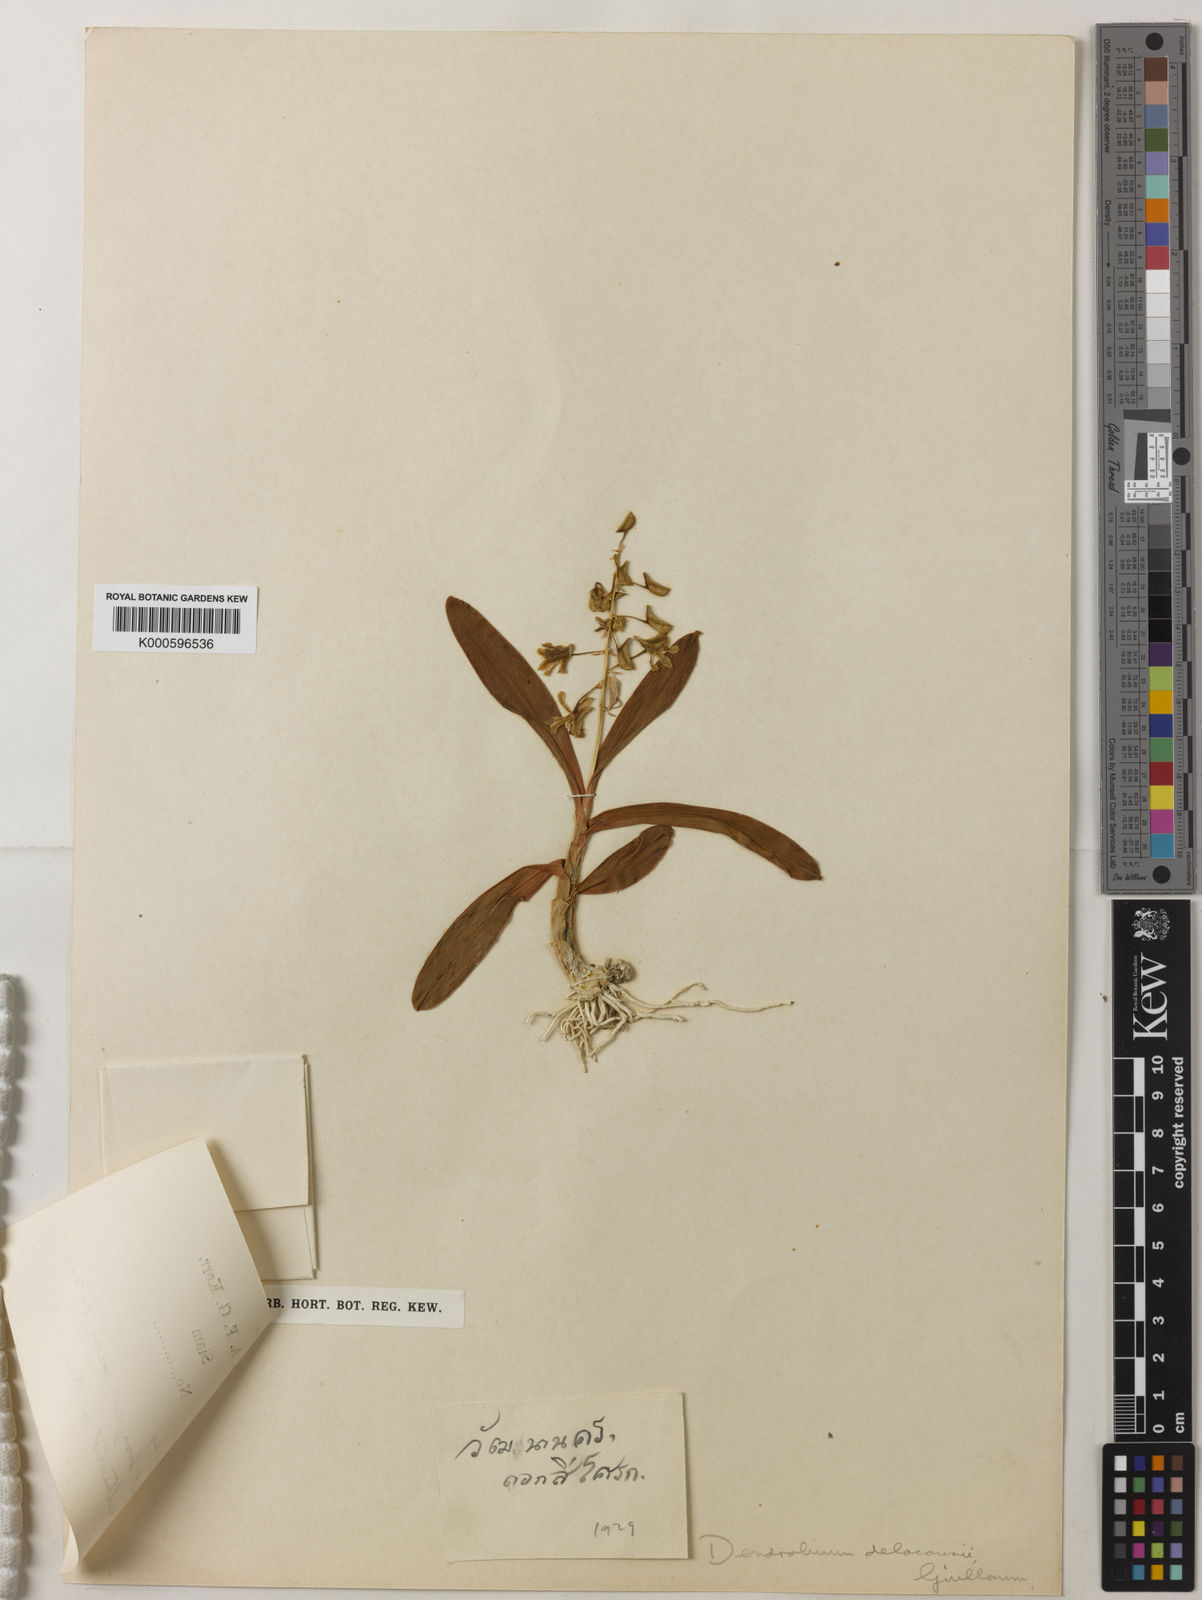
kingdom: Plantae
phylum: Tracheophyta
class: Liliopsida
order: Asparagales
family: Orchidaceae
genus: Dendrobium
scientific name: Dendrobium delacourii
